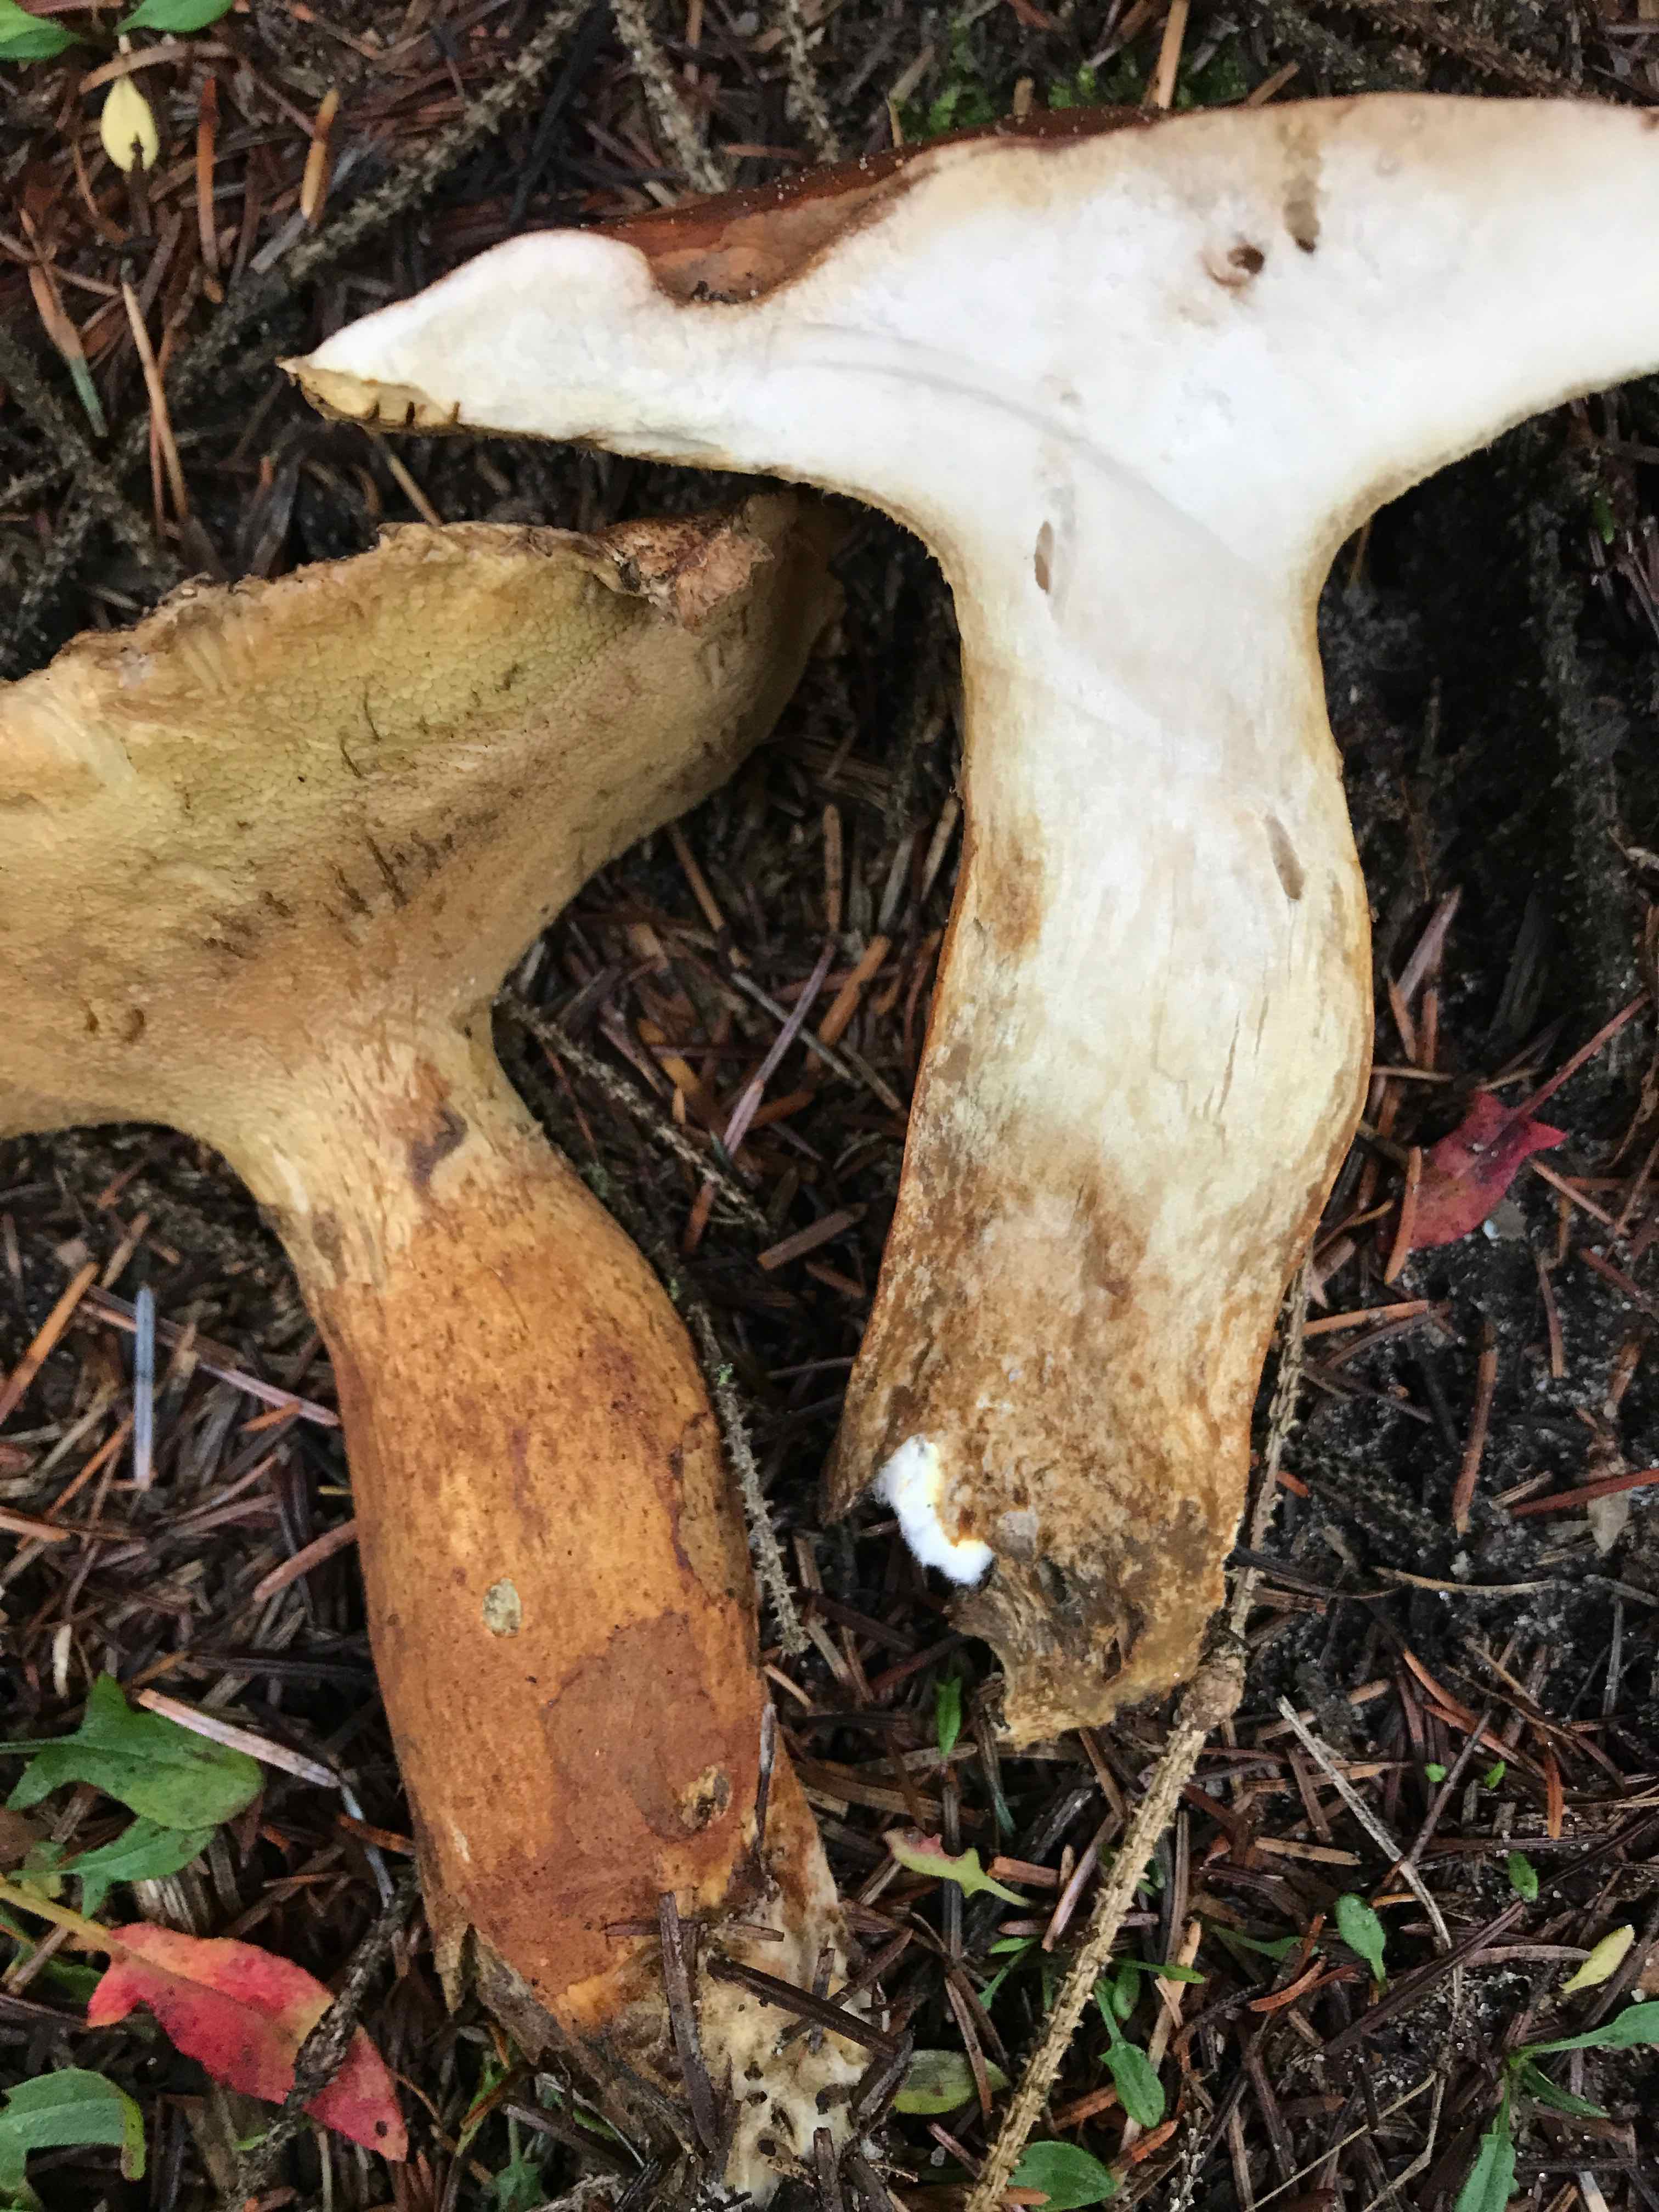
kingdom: Fungi
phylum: Basidiomycota
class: Agaricomycetes
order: Boletales
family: Boletaceae
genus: Imleria
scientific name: Imleria badia
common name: brunstokket rørhat
